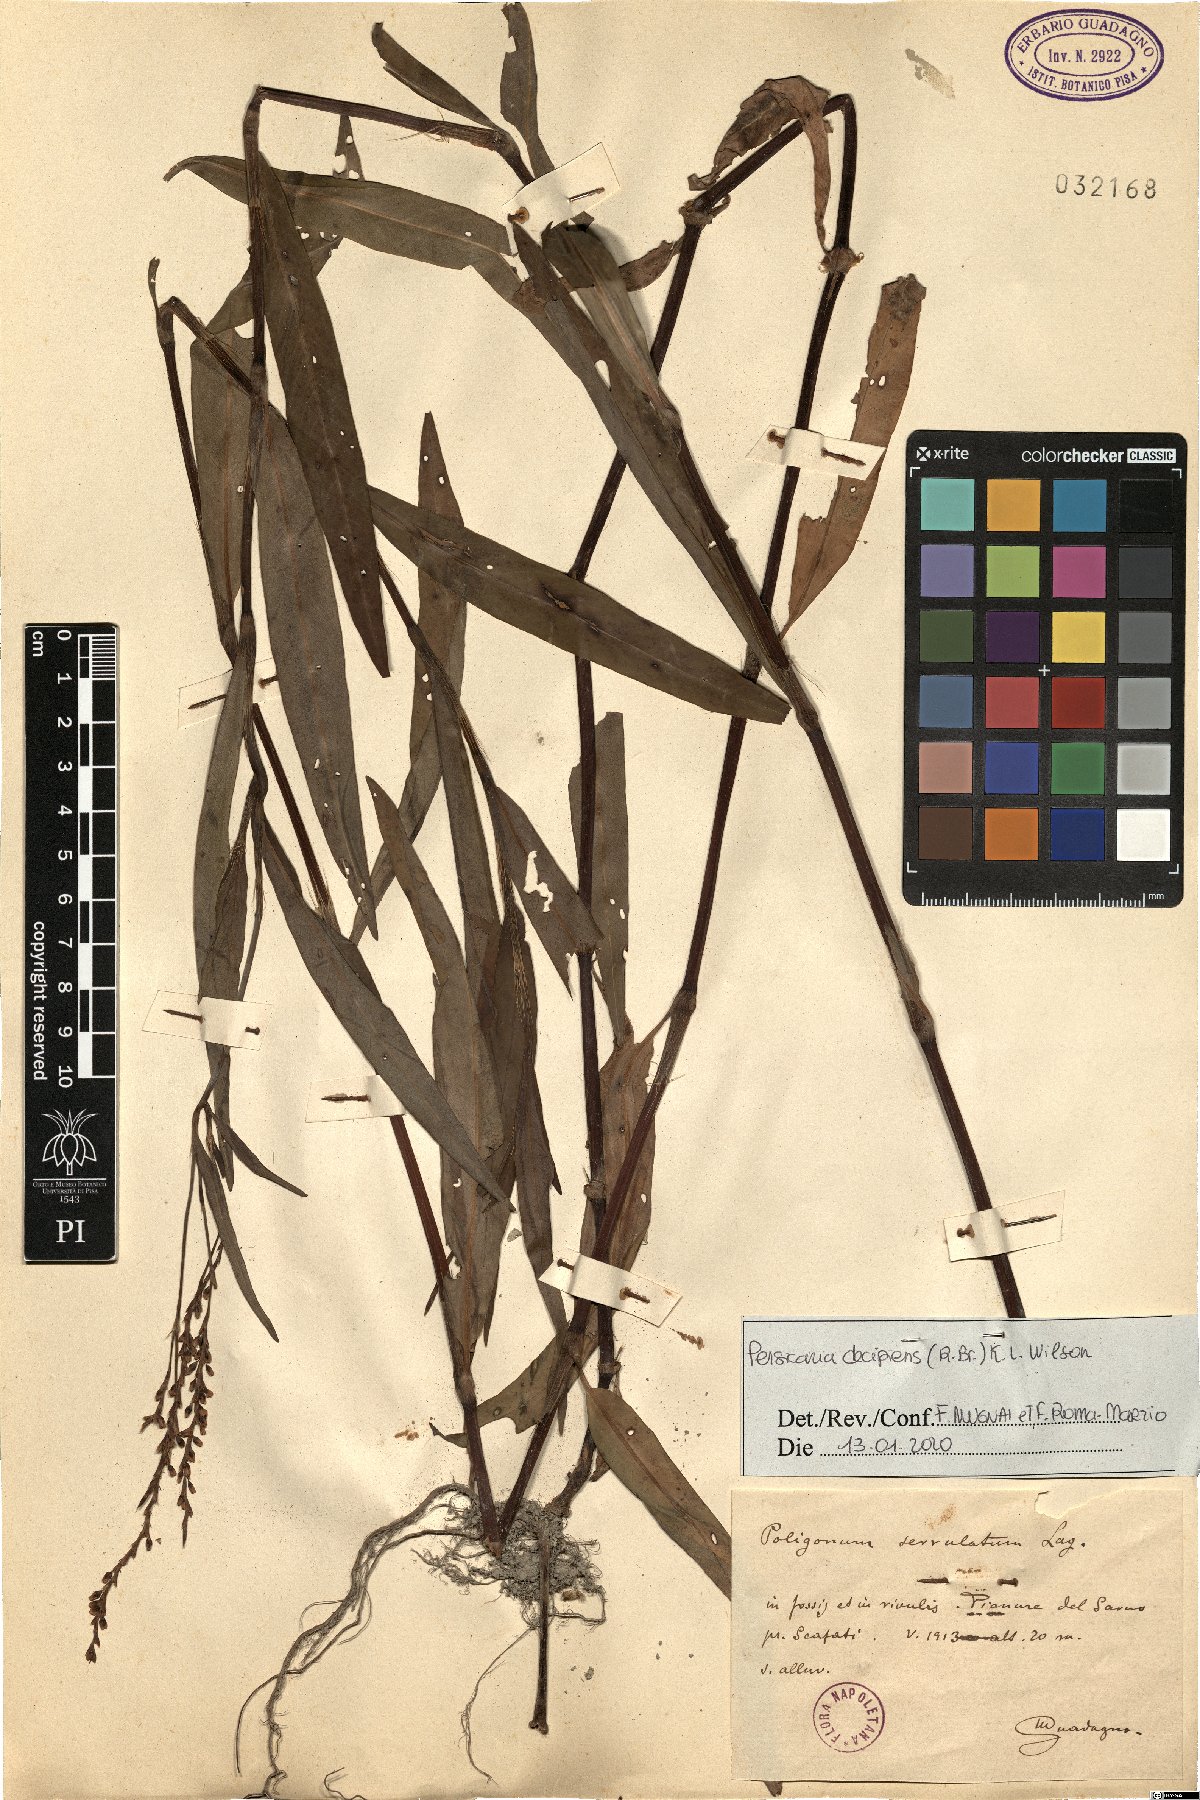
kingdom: Plantae
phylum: Tracheophyta
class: Magnoliopsida
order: Caryophyllales
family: Polygonaceae
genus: Persicaria
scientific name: Persicaria decipiens
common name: Willow-weed
